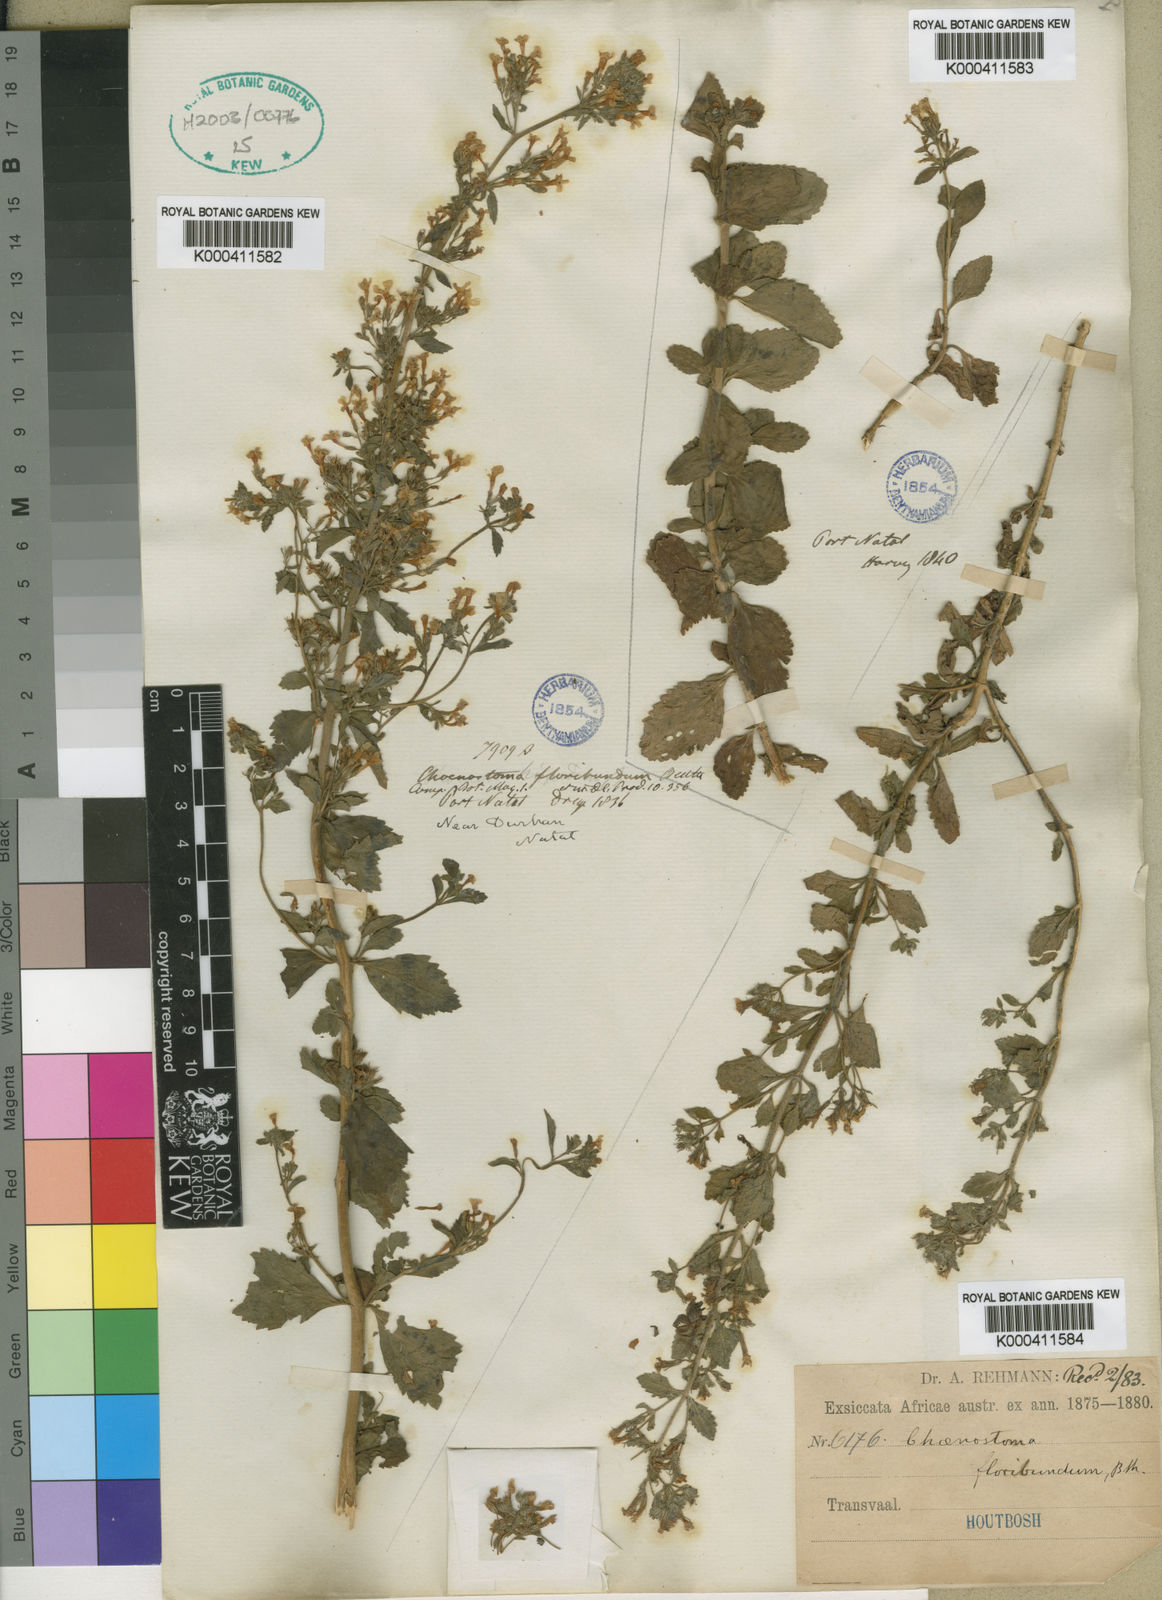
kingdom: Plantae
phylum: Tracheophyta
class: Magnoliopsida
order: Lamiales
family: Scrophulariaceae
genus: Chaenostoma
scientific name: Chaenostoma floribundum
